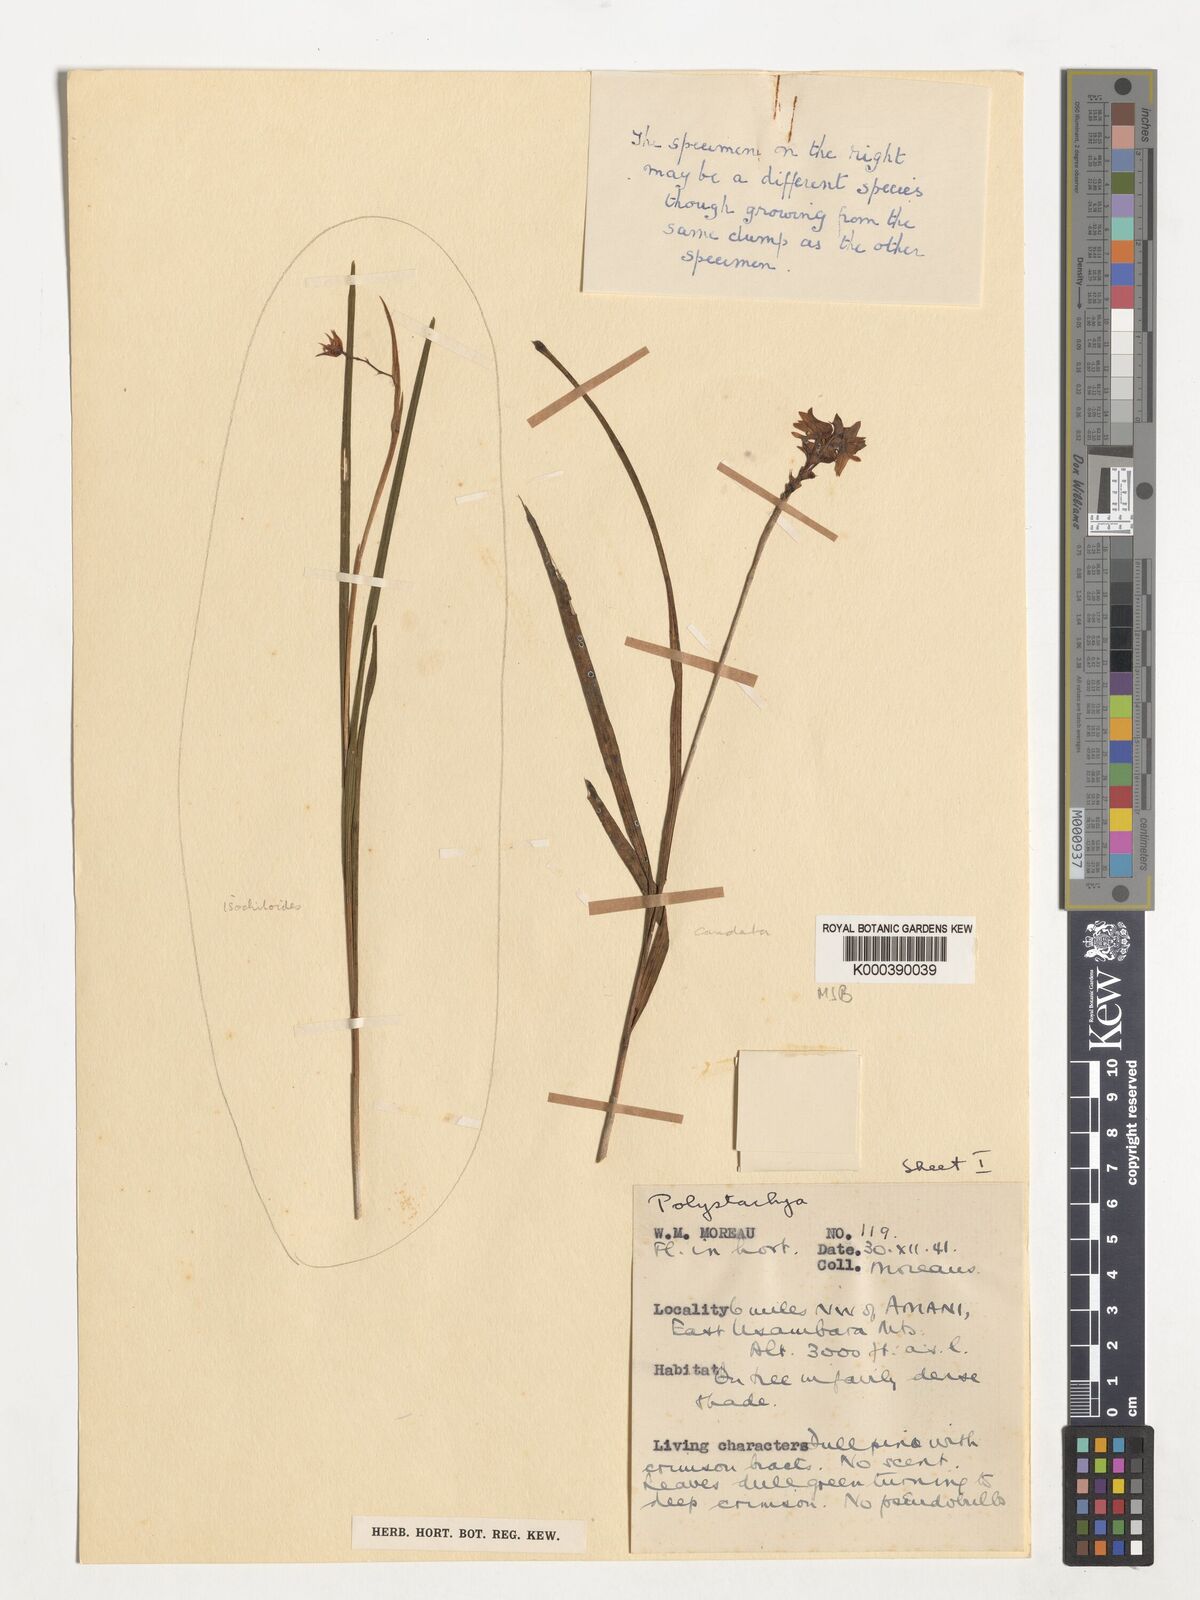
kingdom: Plantae
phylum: Tracheophyta
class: Liliopsida
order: Asparagales
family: Orchidaceae
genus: Polystachya
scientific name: Polystachya caudata
